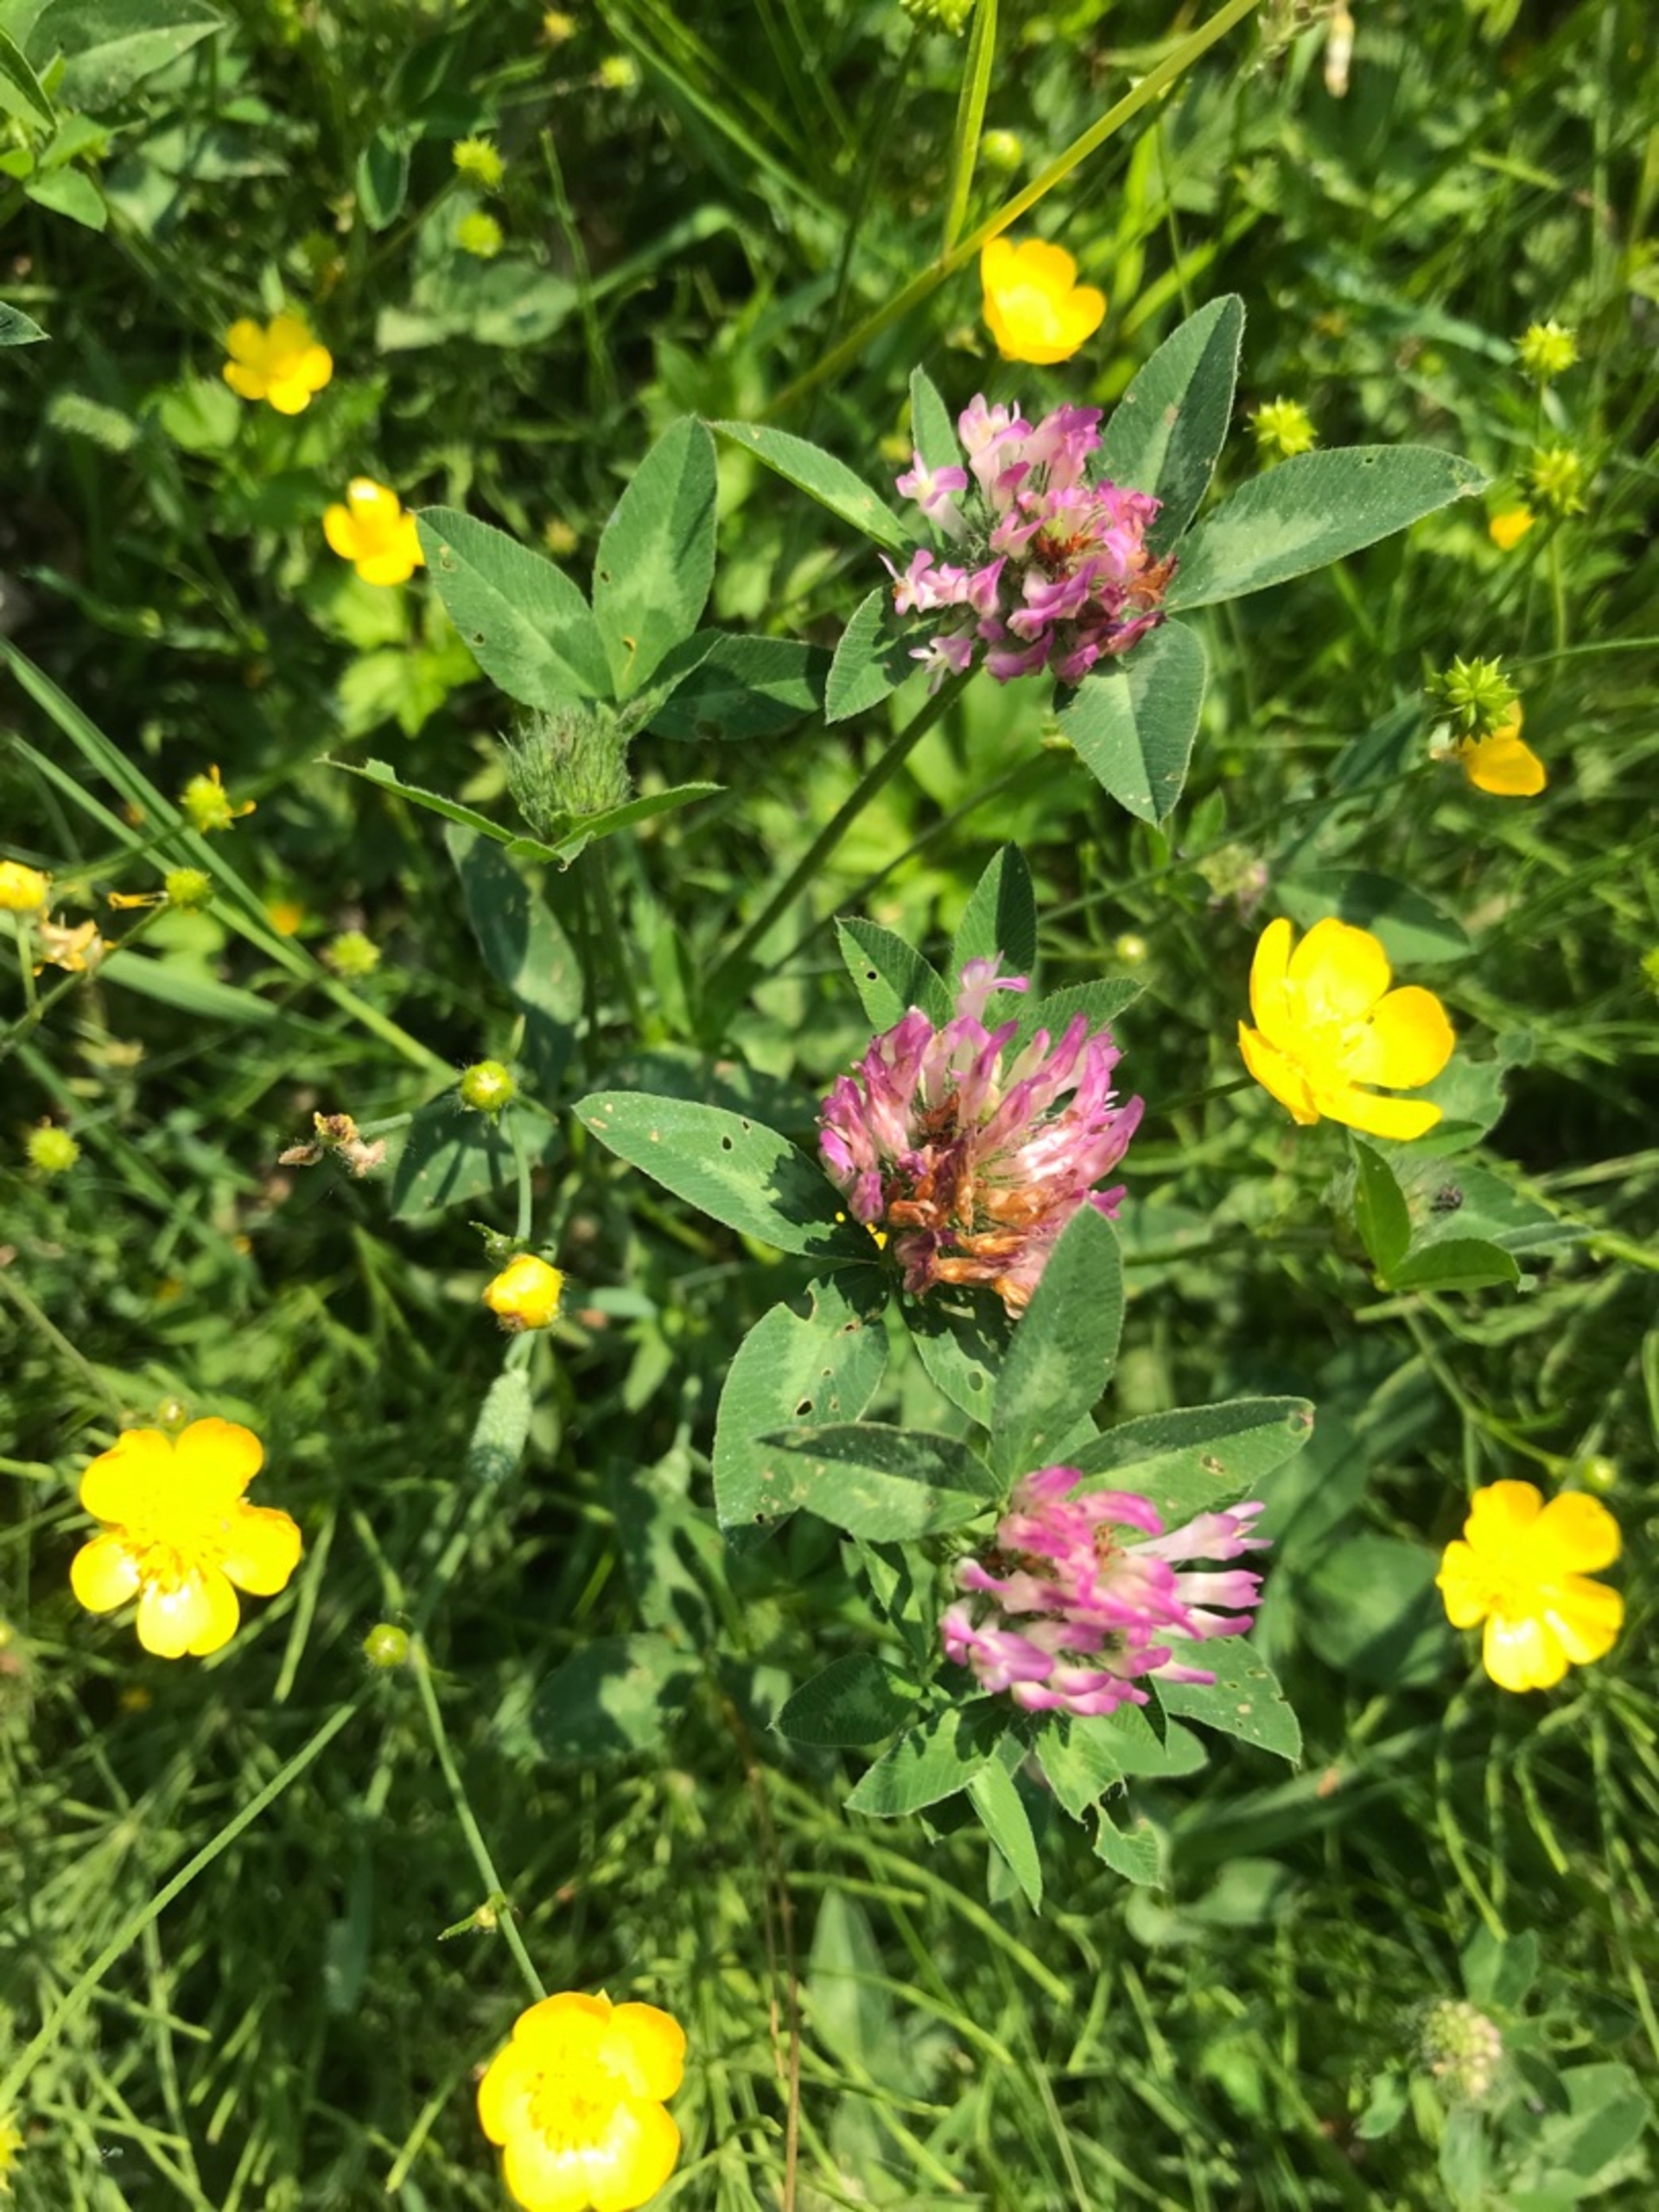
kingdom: Plantae
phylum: Tracheophyta
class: Magnoliopsida
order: Fabales
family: Fabaceae
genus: Trifolium
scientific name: Trifolium pratense
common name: Rød-kløver
